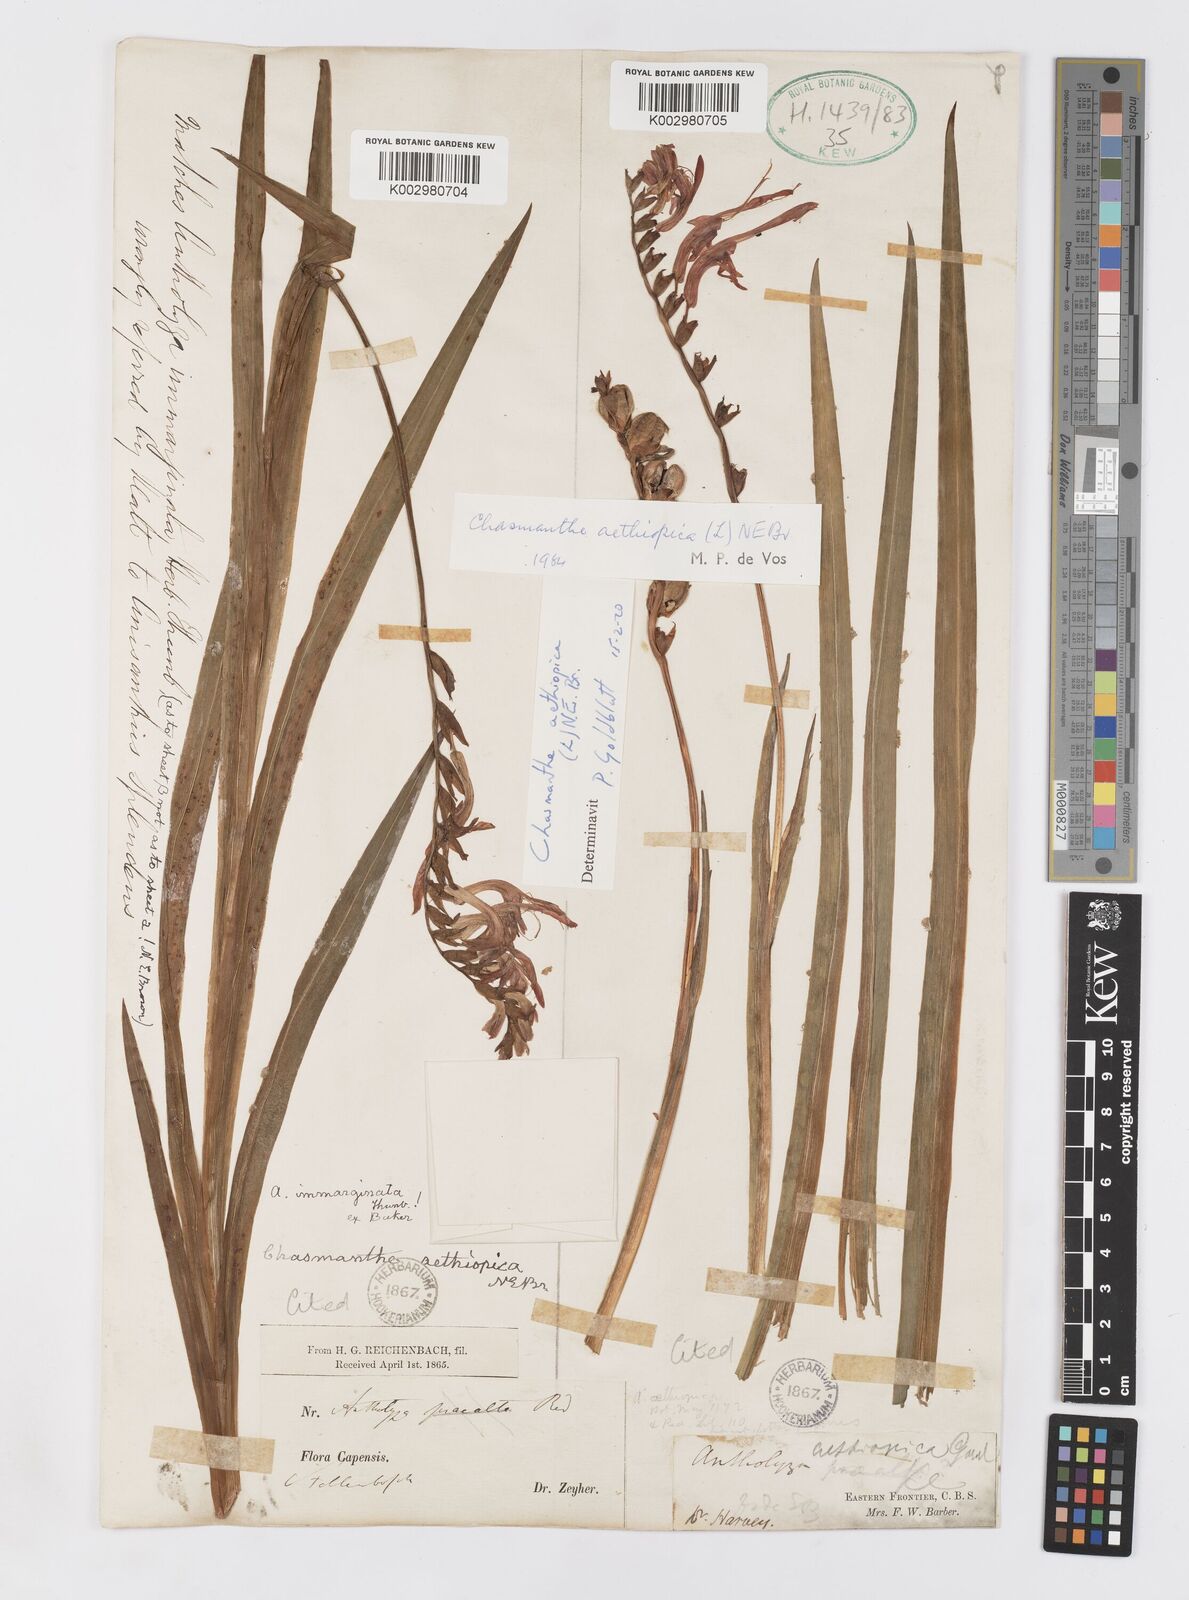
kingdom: Plantae
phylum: Tracheophyta
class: Liliopsida
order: Asparagales
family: Iridaceae
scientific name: Iridaceae
